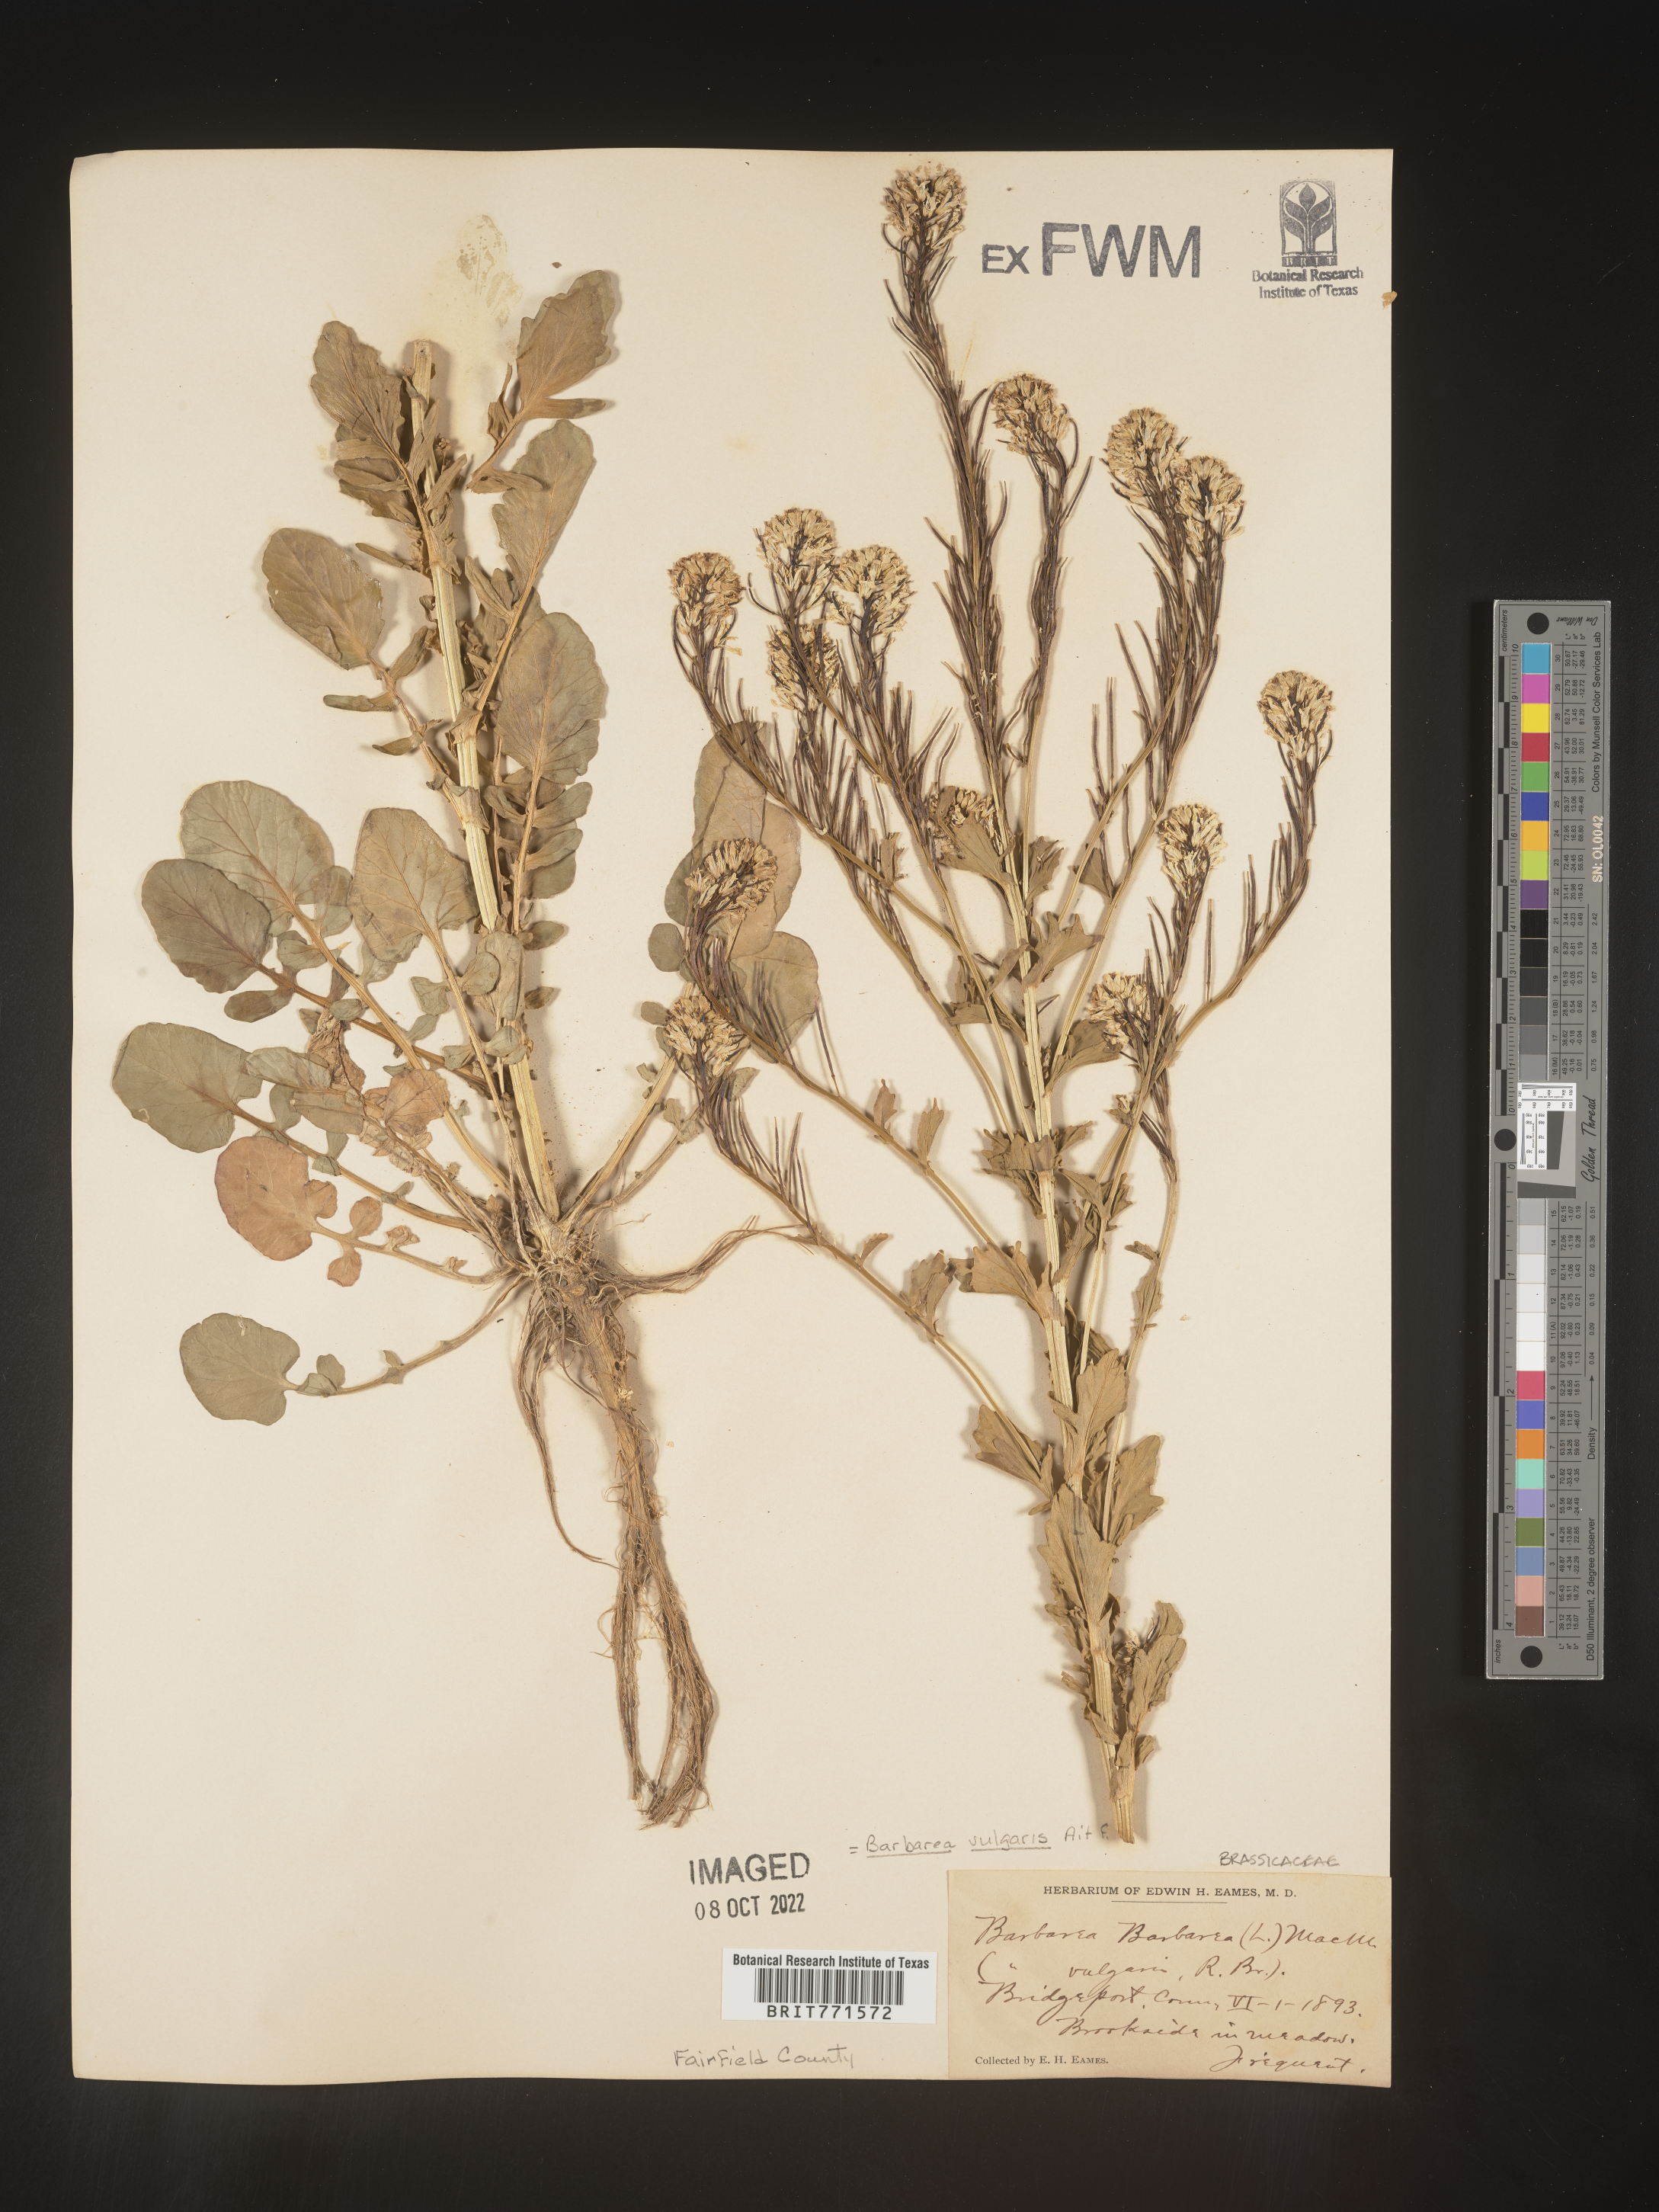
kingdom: Plantae
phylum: Tracheophyta
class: Magnoliopsida
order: Brassicales
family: Brassicaceae
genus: Barbarea
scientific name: Barbarea vulgaris
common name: Cressy-greens
